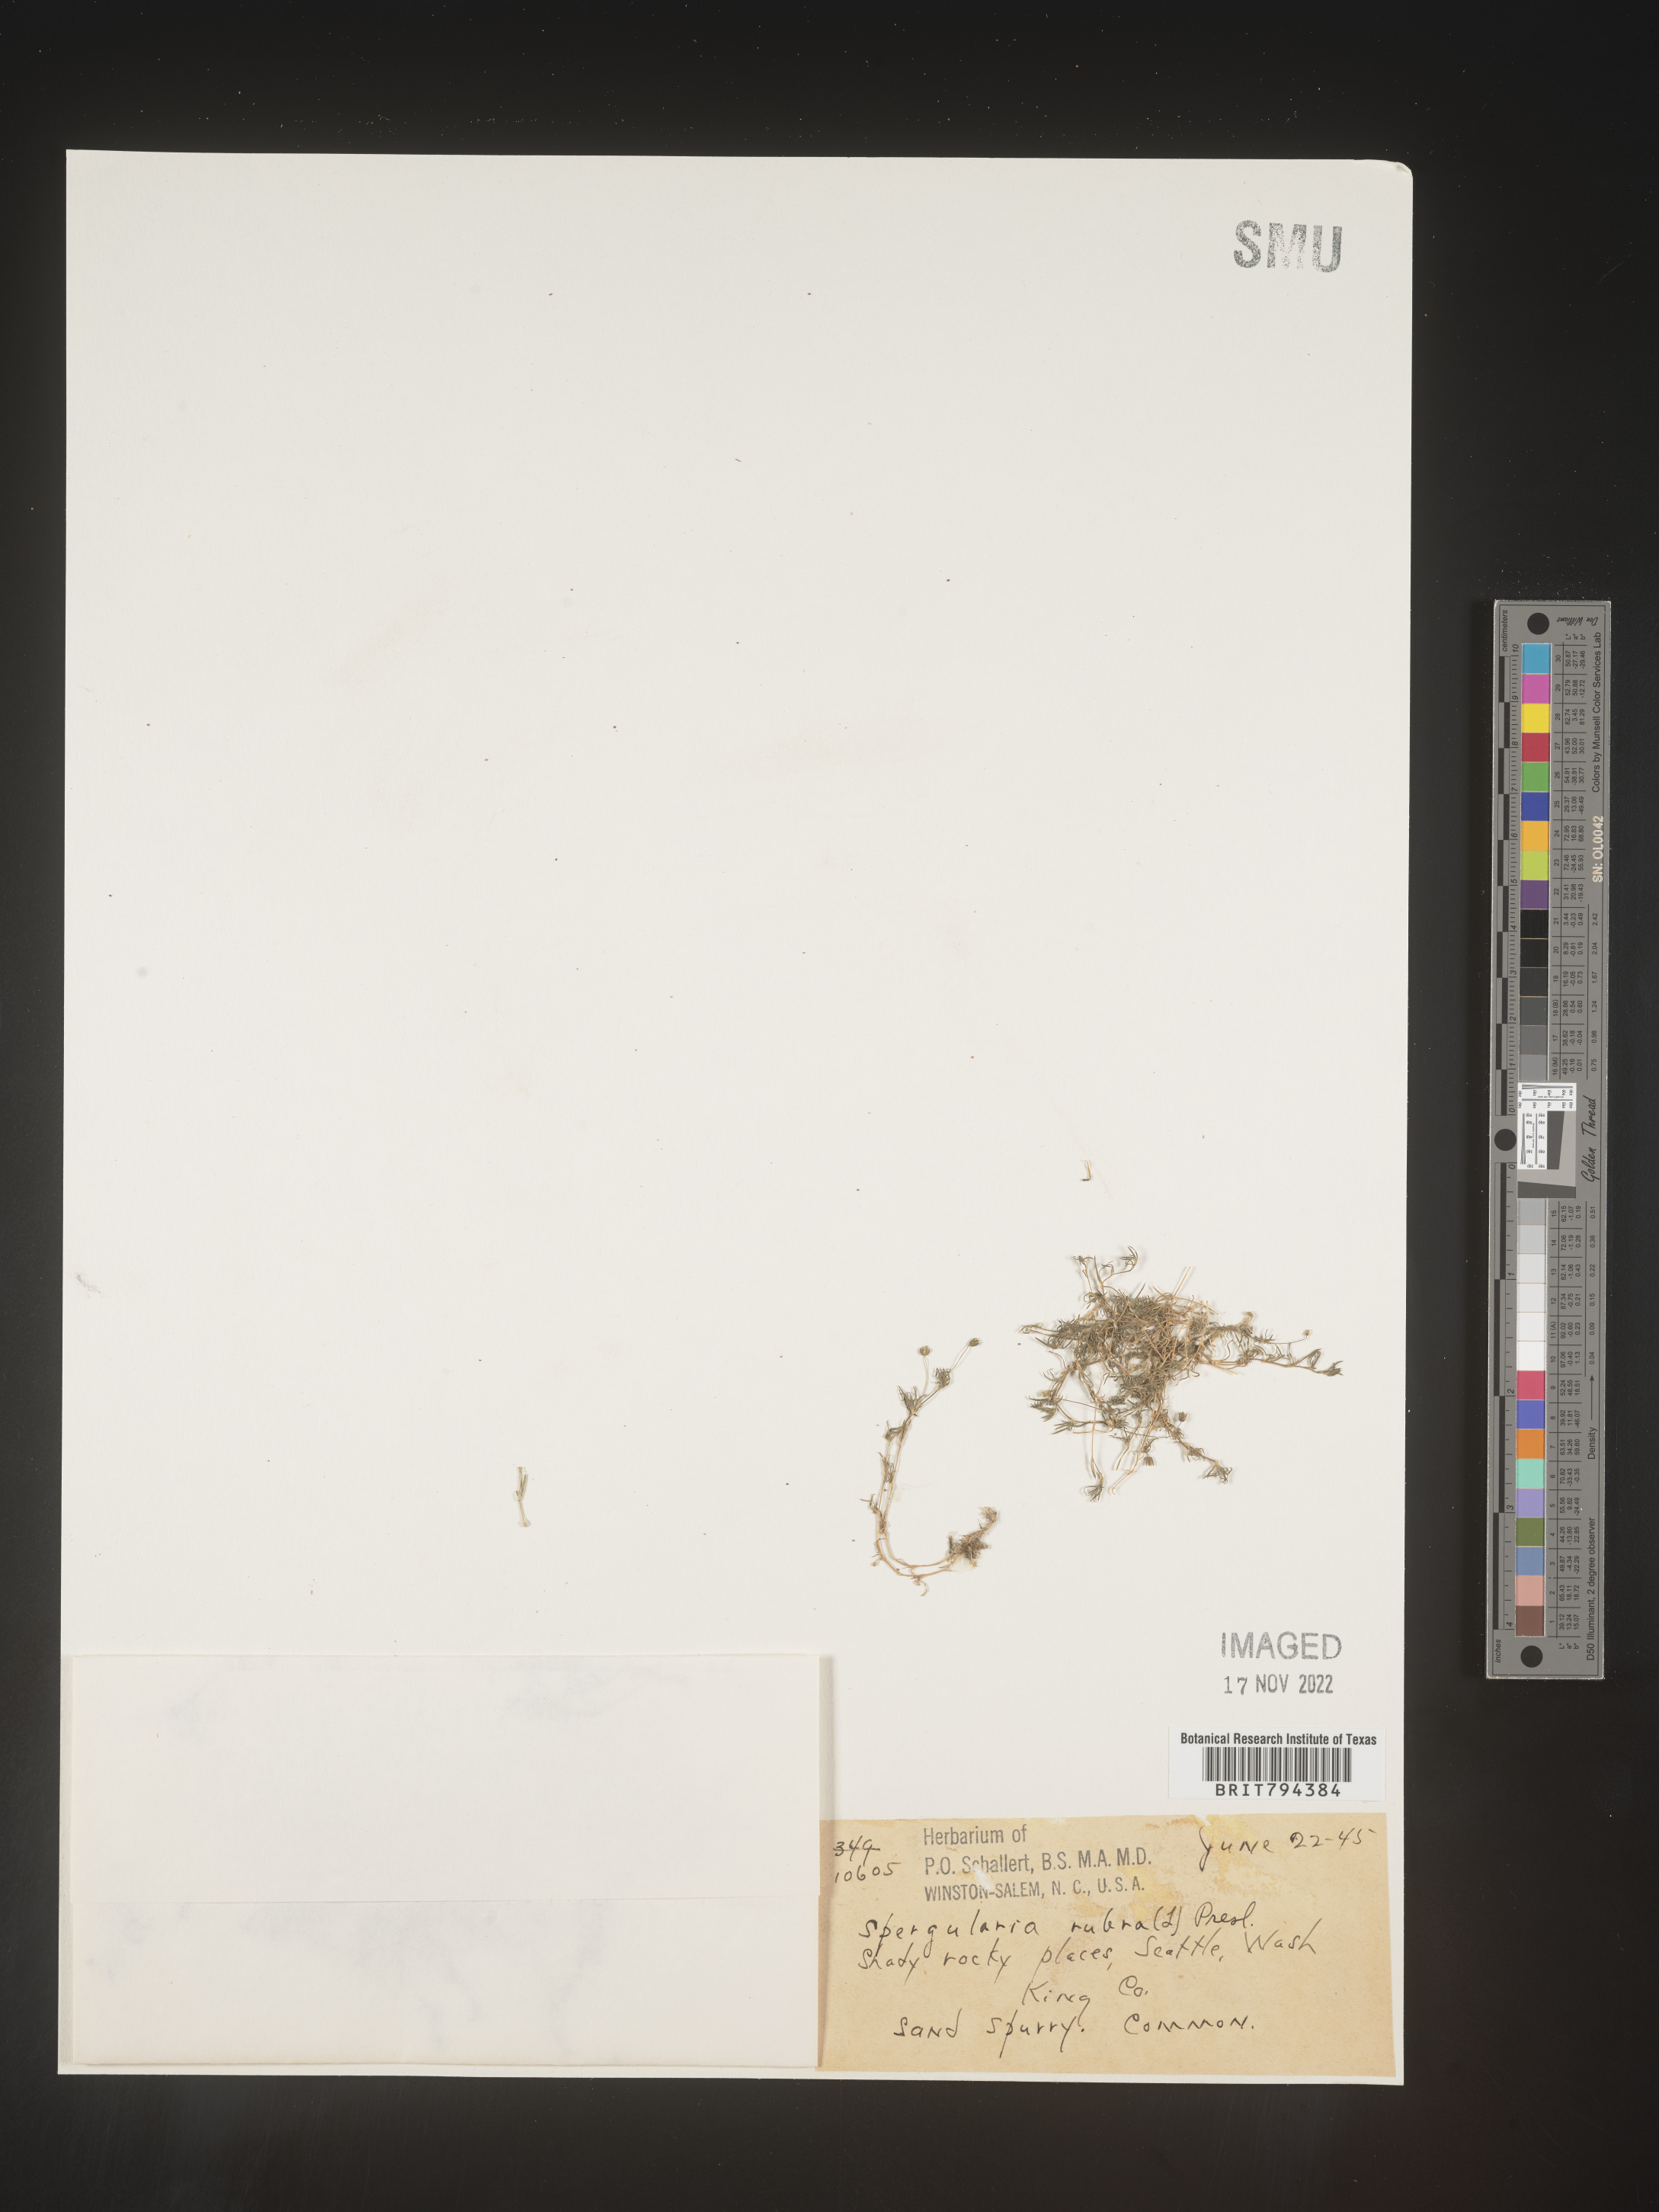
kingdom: Plantae
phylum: Tracheophyta
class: Magnoliopsida
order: Caryophyllales
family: Caryophyllaceae
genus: Spergularia
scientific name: Spergularia rubra
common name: Red sand-spurrey
